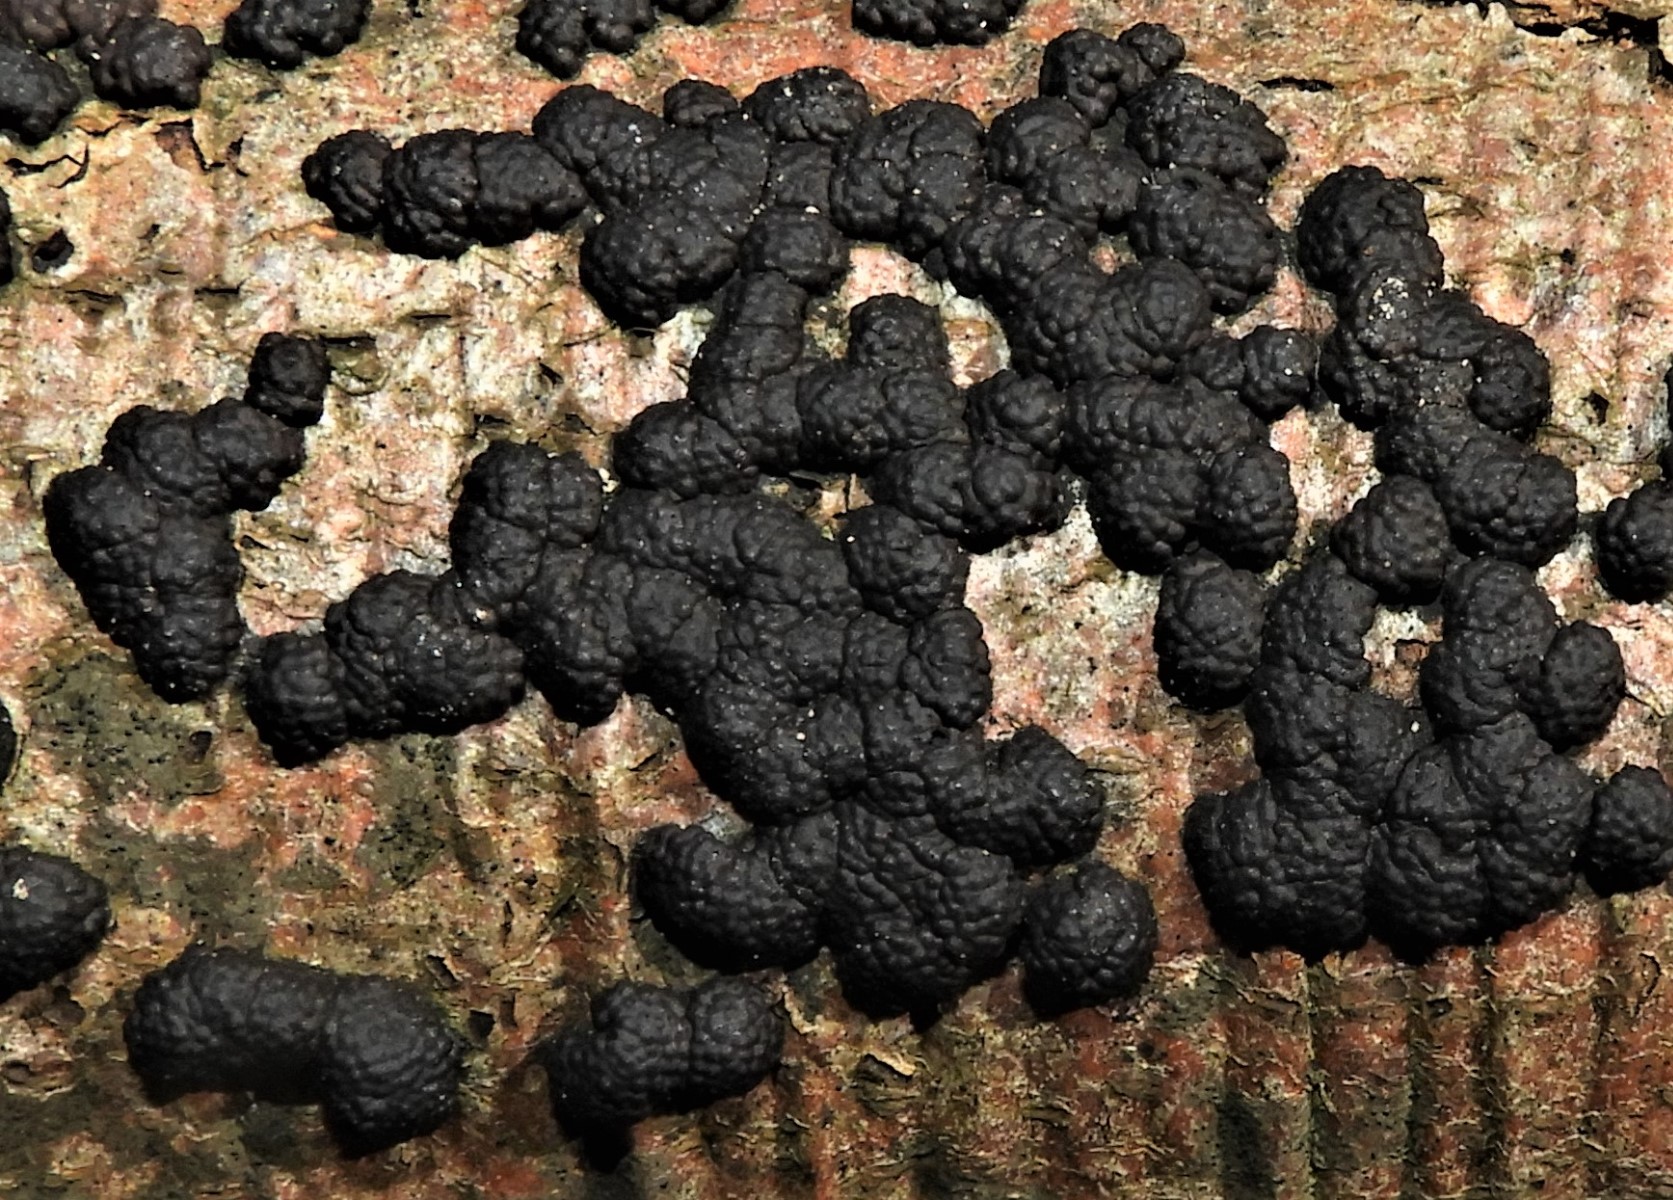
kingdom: Fungi
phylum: Ascomycota
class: Sordariomycetes
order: Xylariales
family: Hypoxylaceae
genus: Jackrogersella
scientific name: Jackrogersella multiformis
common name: foranderlig kulbær
